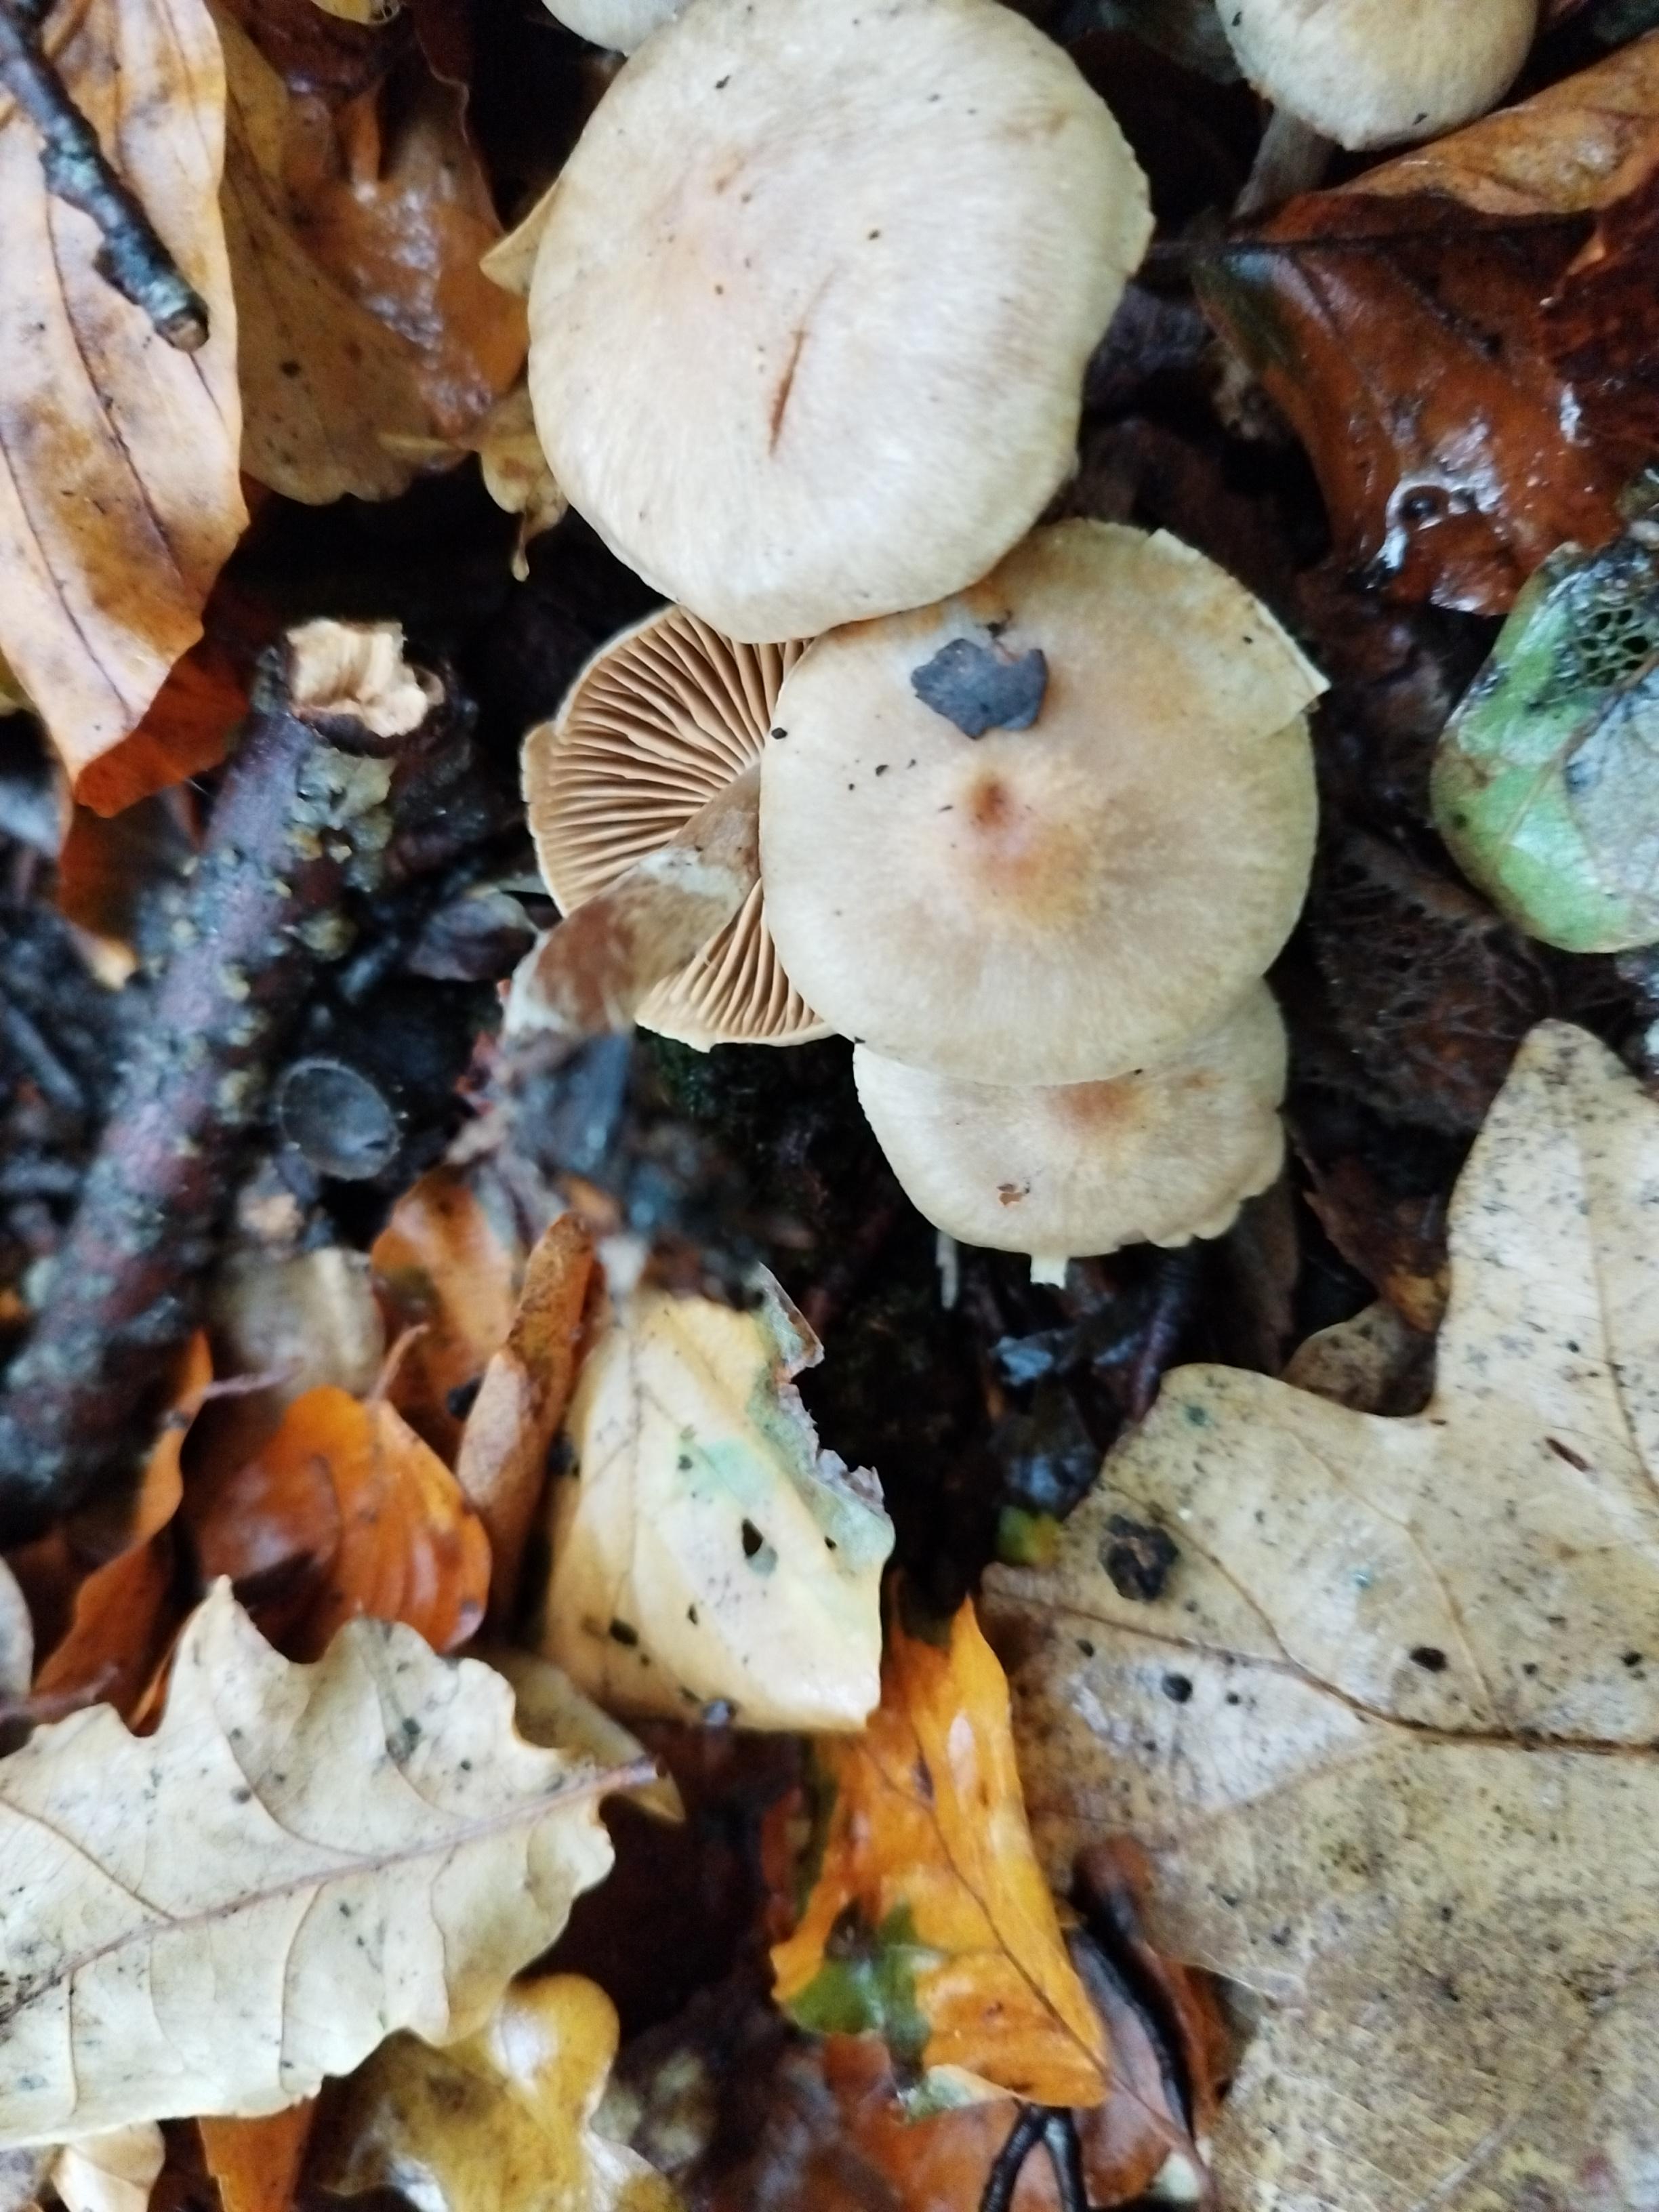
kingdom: Fungi
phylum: Basidiomycota
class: Agaricomycetes
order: Agaricales
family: Cortinariaceae
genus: Cortinarius
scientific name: Cortinarius
